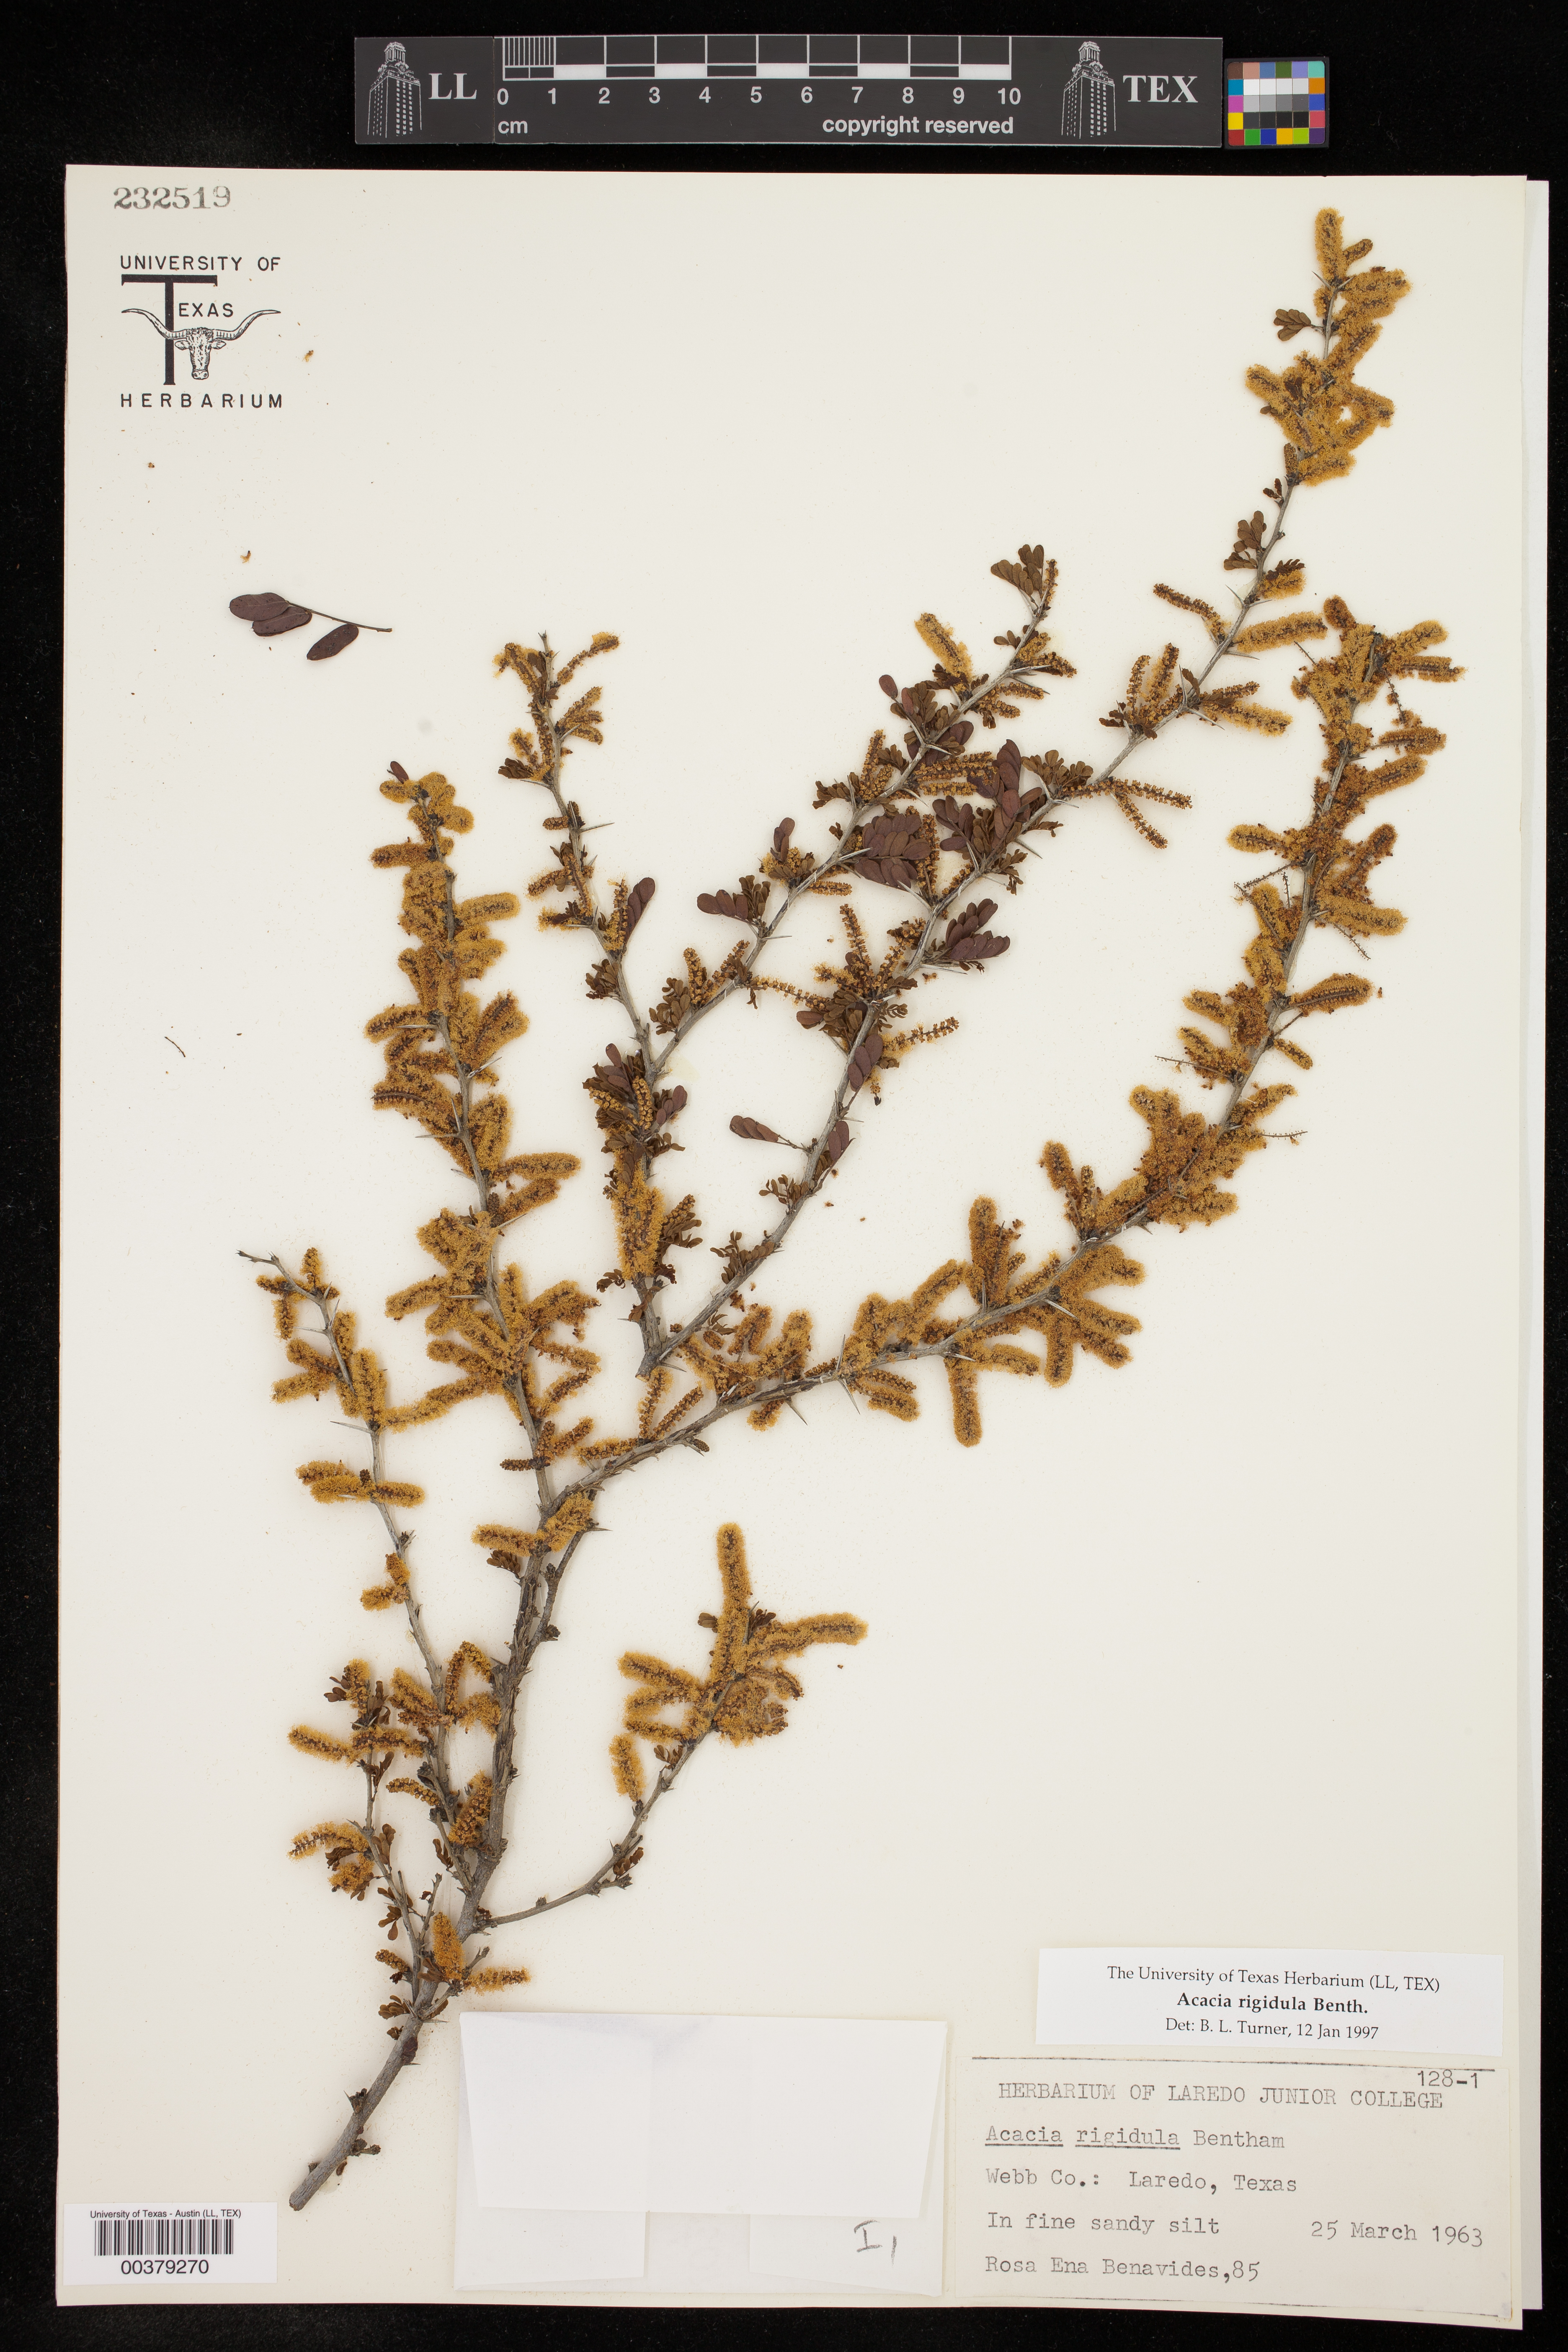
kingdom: Plantae
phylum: Tracheophyta
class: Magnoliopsida
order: Fabales
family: Fabaceae
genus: Vachellia
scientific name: Vachellia rigidula
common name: Blackbrush
